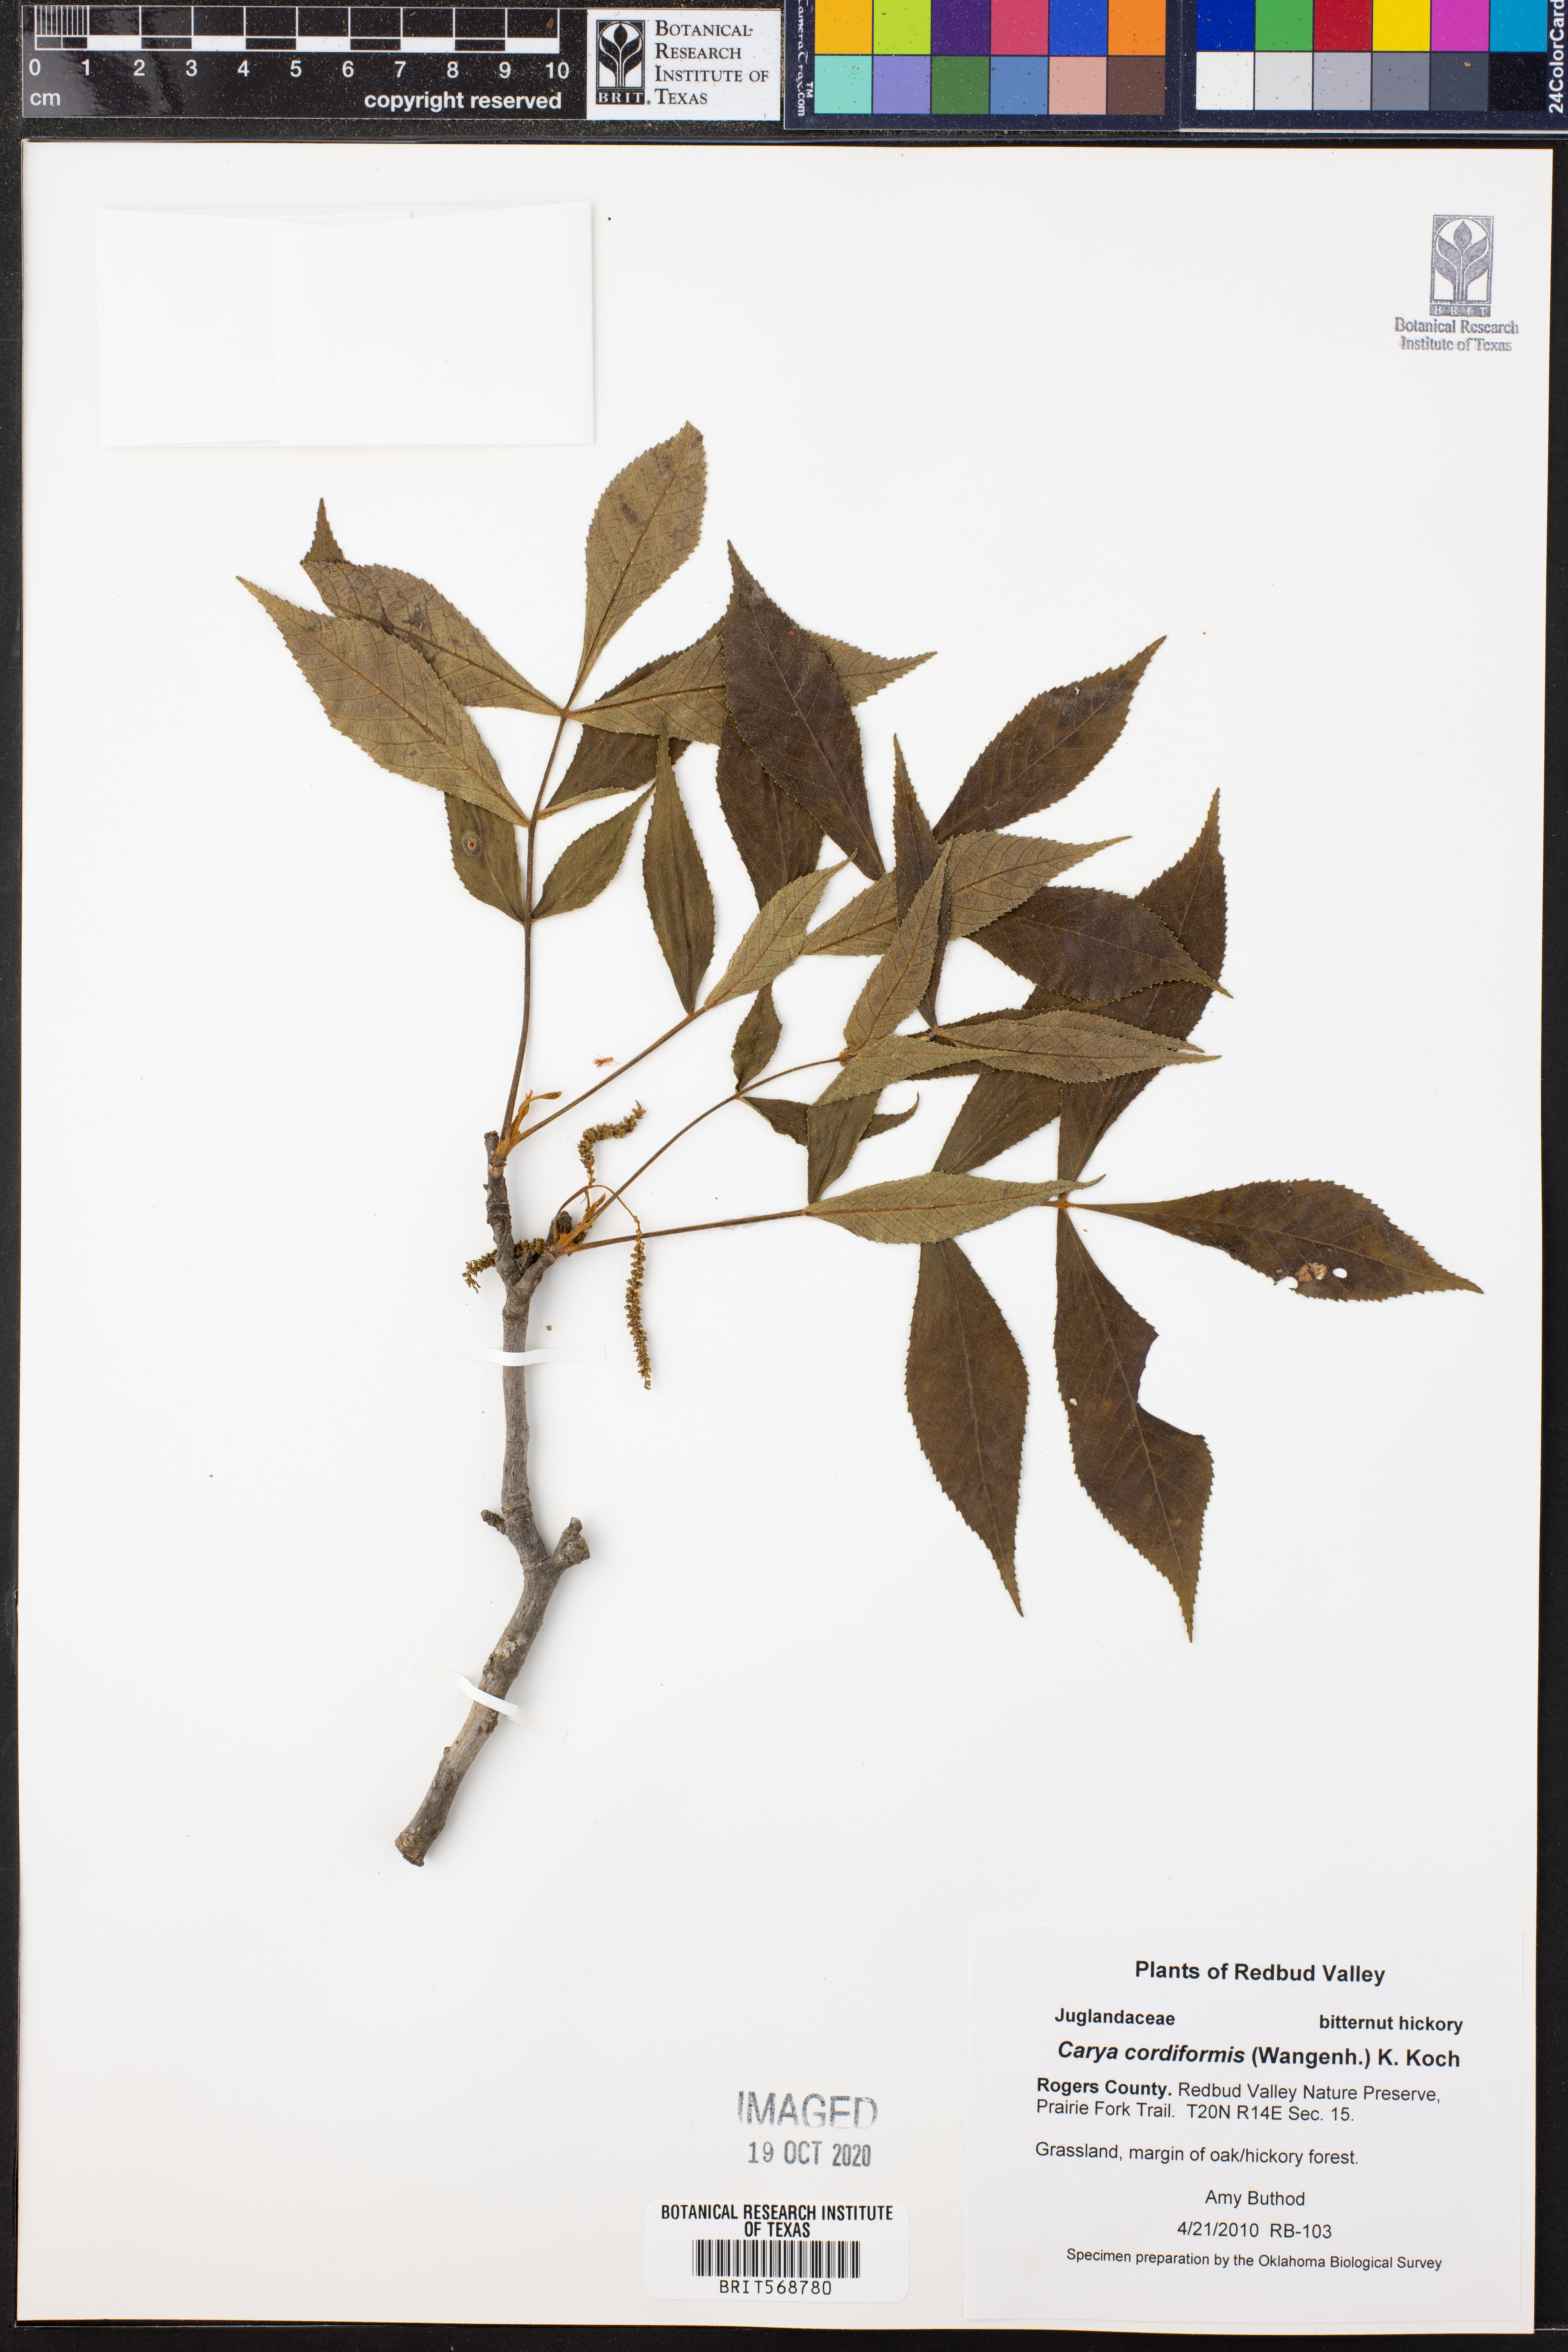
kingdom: Plantae
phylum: Tracheophyta
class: Magnoliopsida
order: Fagales
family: Juglandaceae
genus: Carya
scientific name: Carya cordiformis
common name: Bitternut hickory
